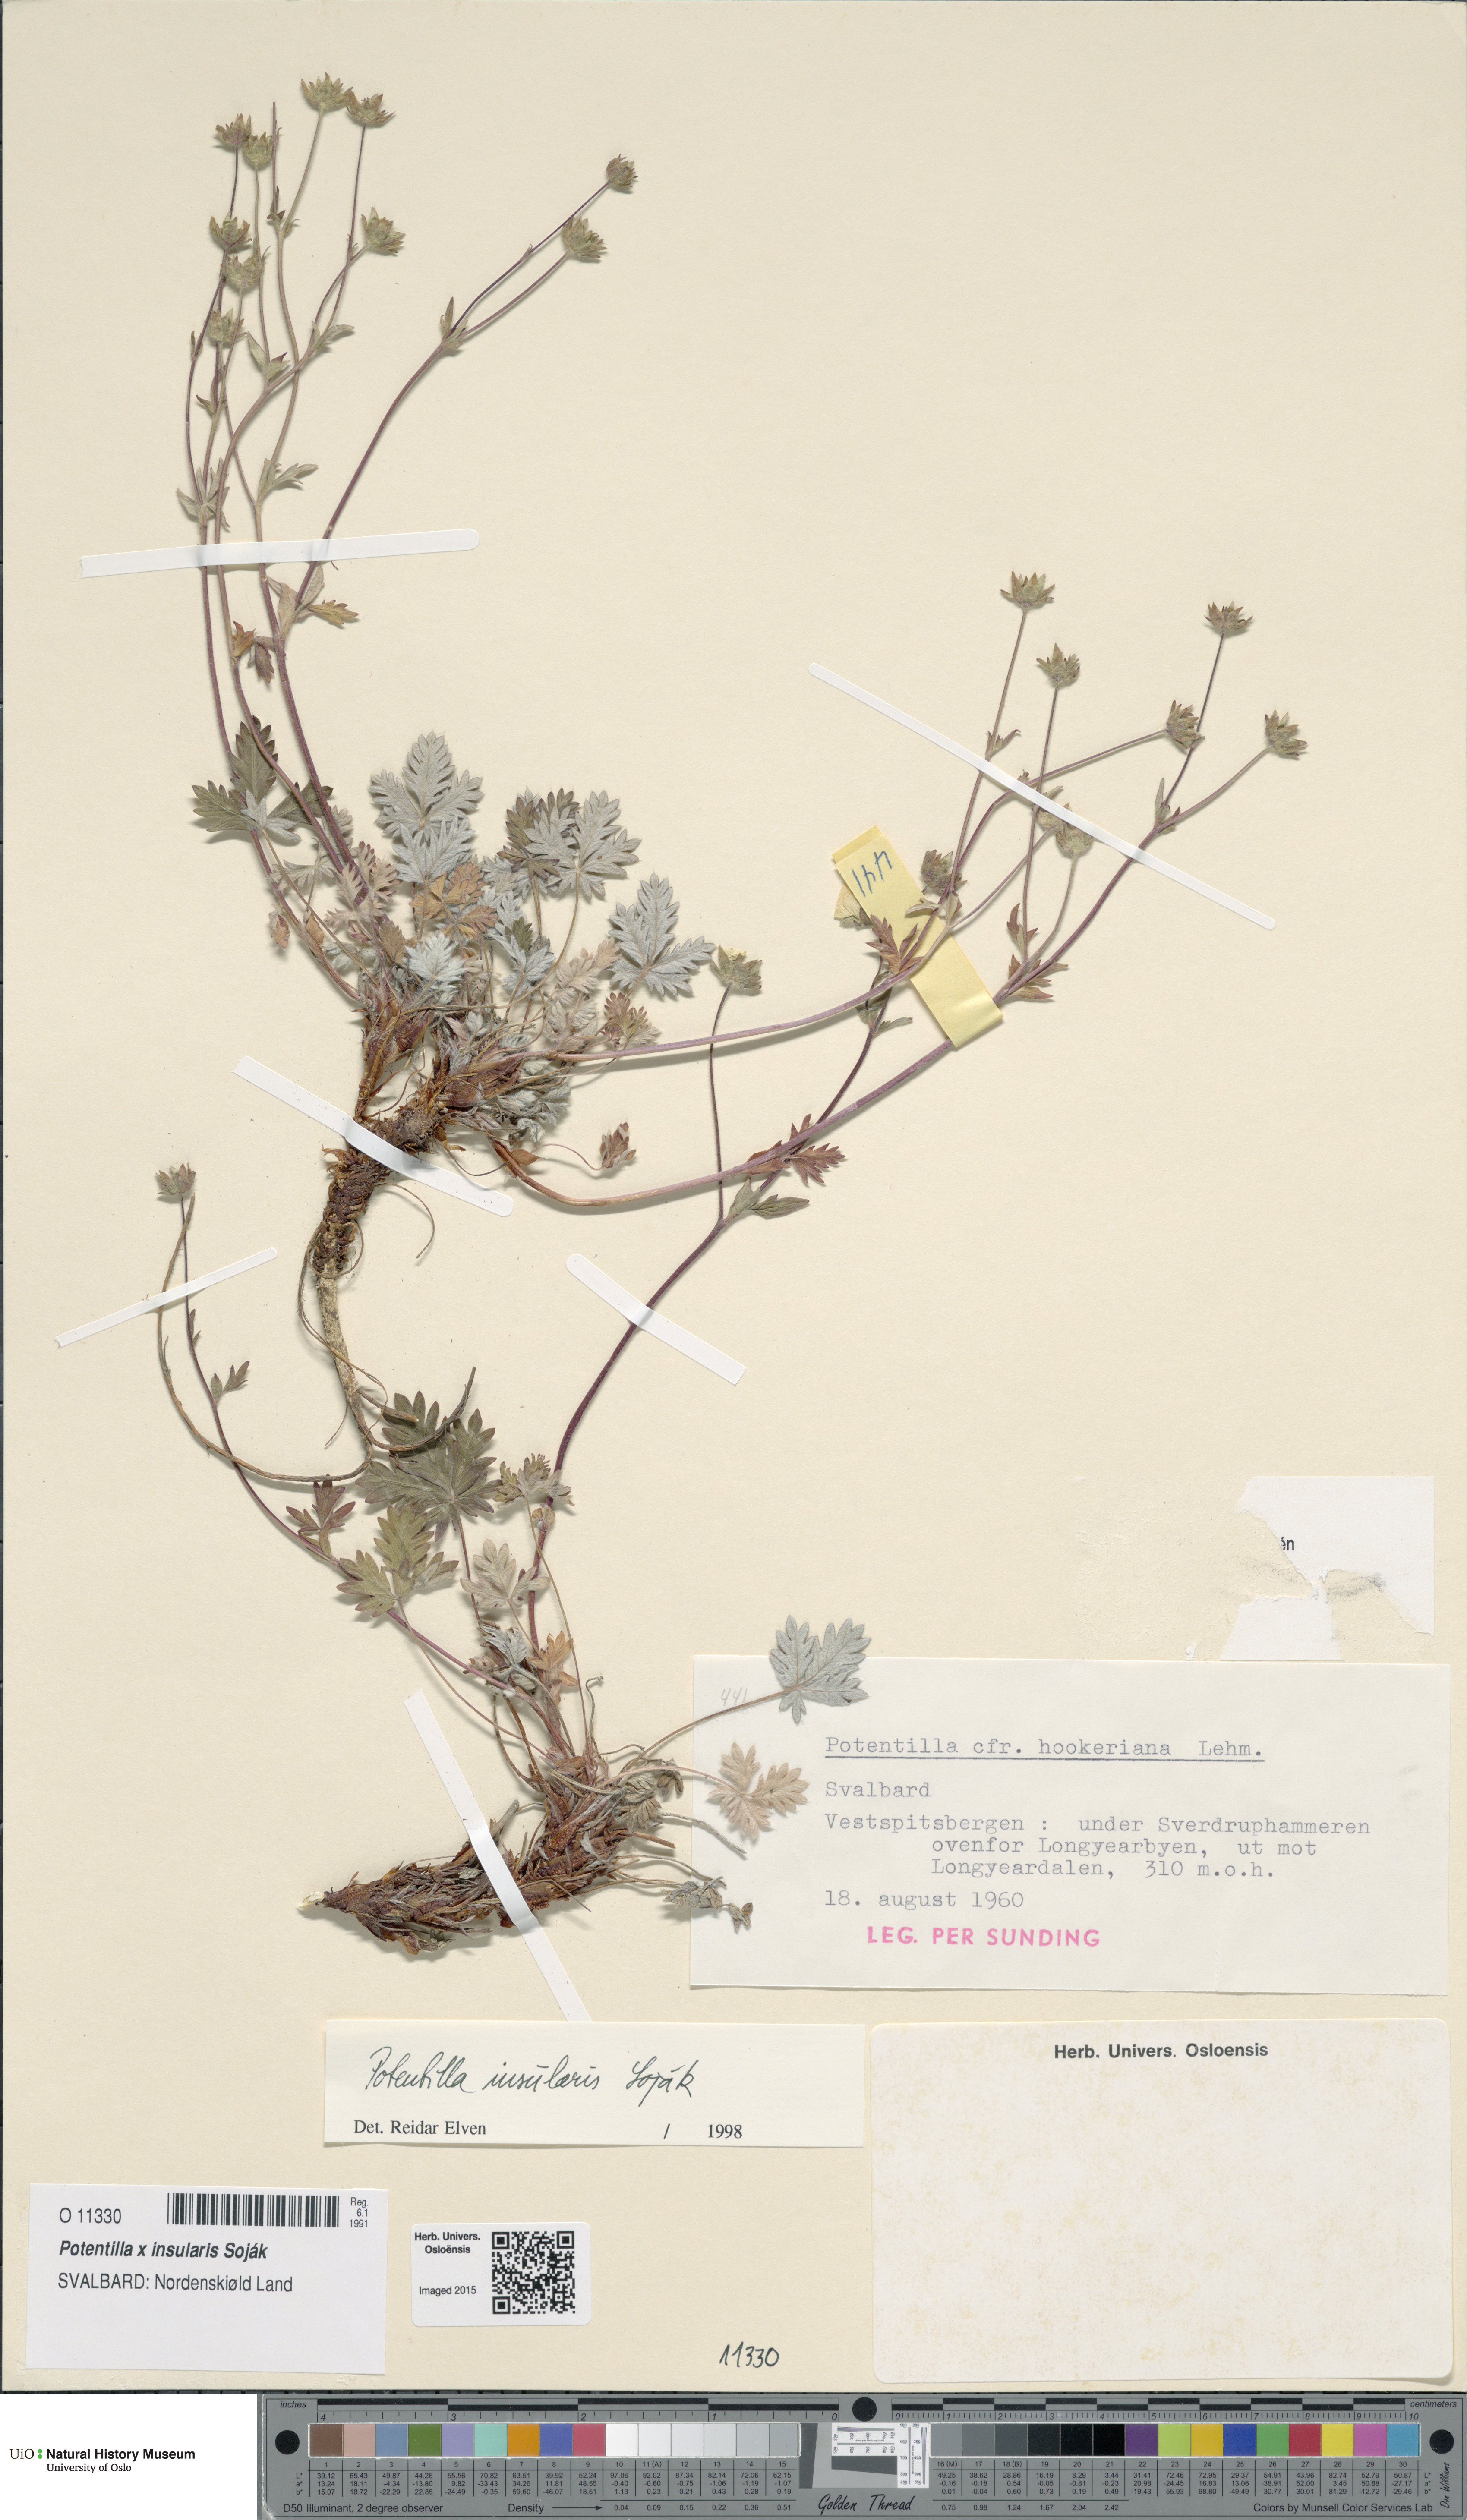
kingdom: Plantae
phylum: Tracheophyta
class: Magnoliopsida
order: Rosales
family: Rosaceae
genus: Potentilla
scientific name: Potentilla insularis
